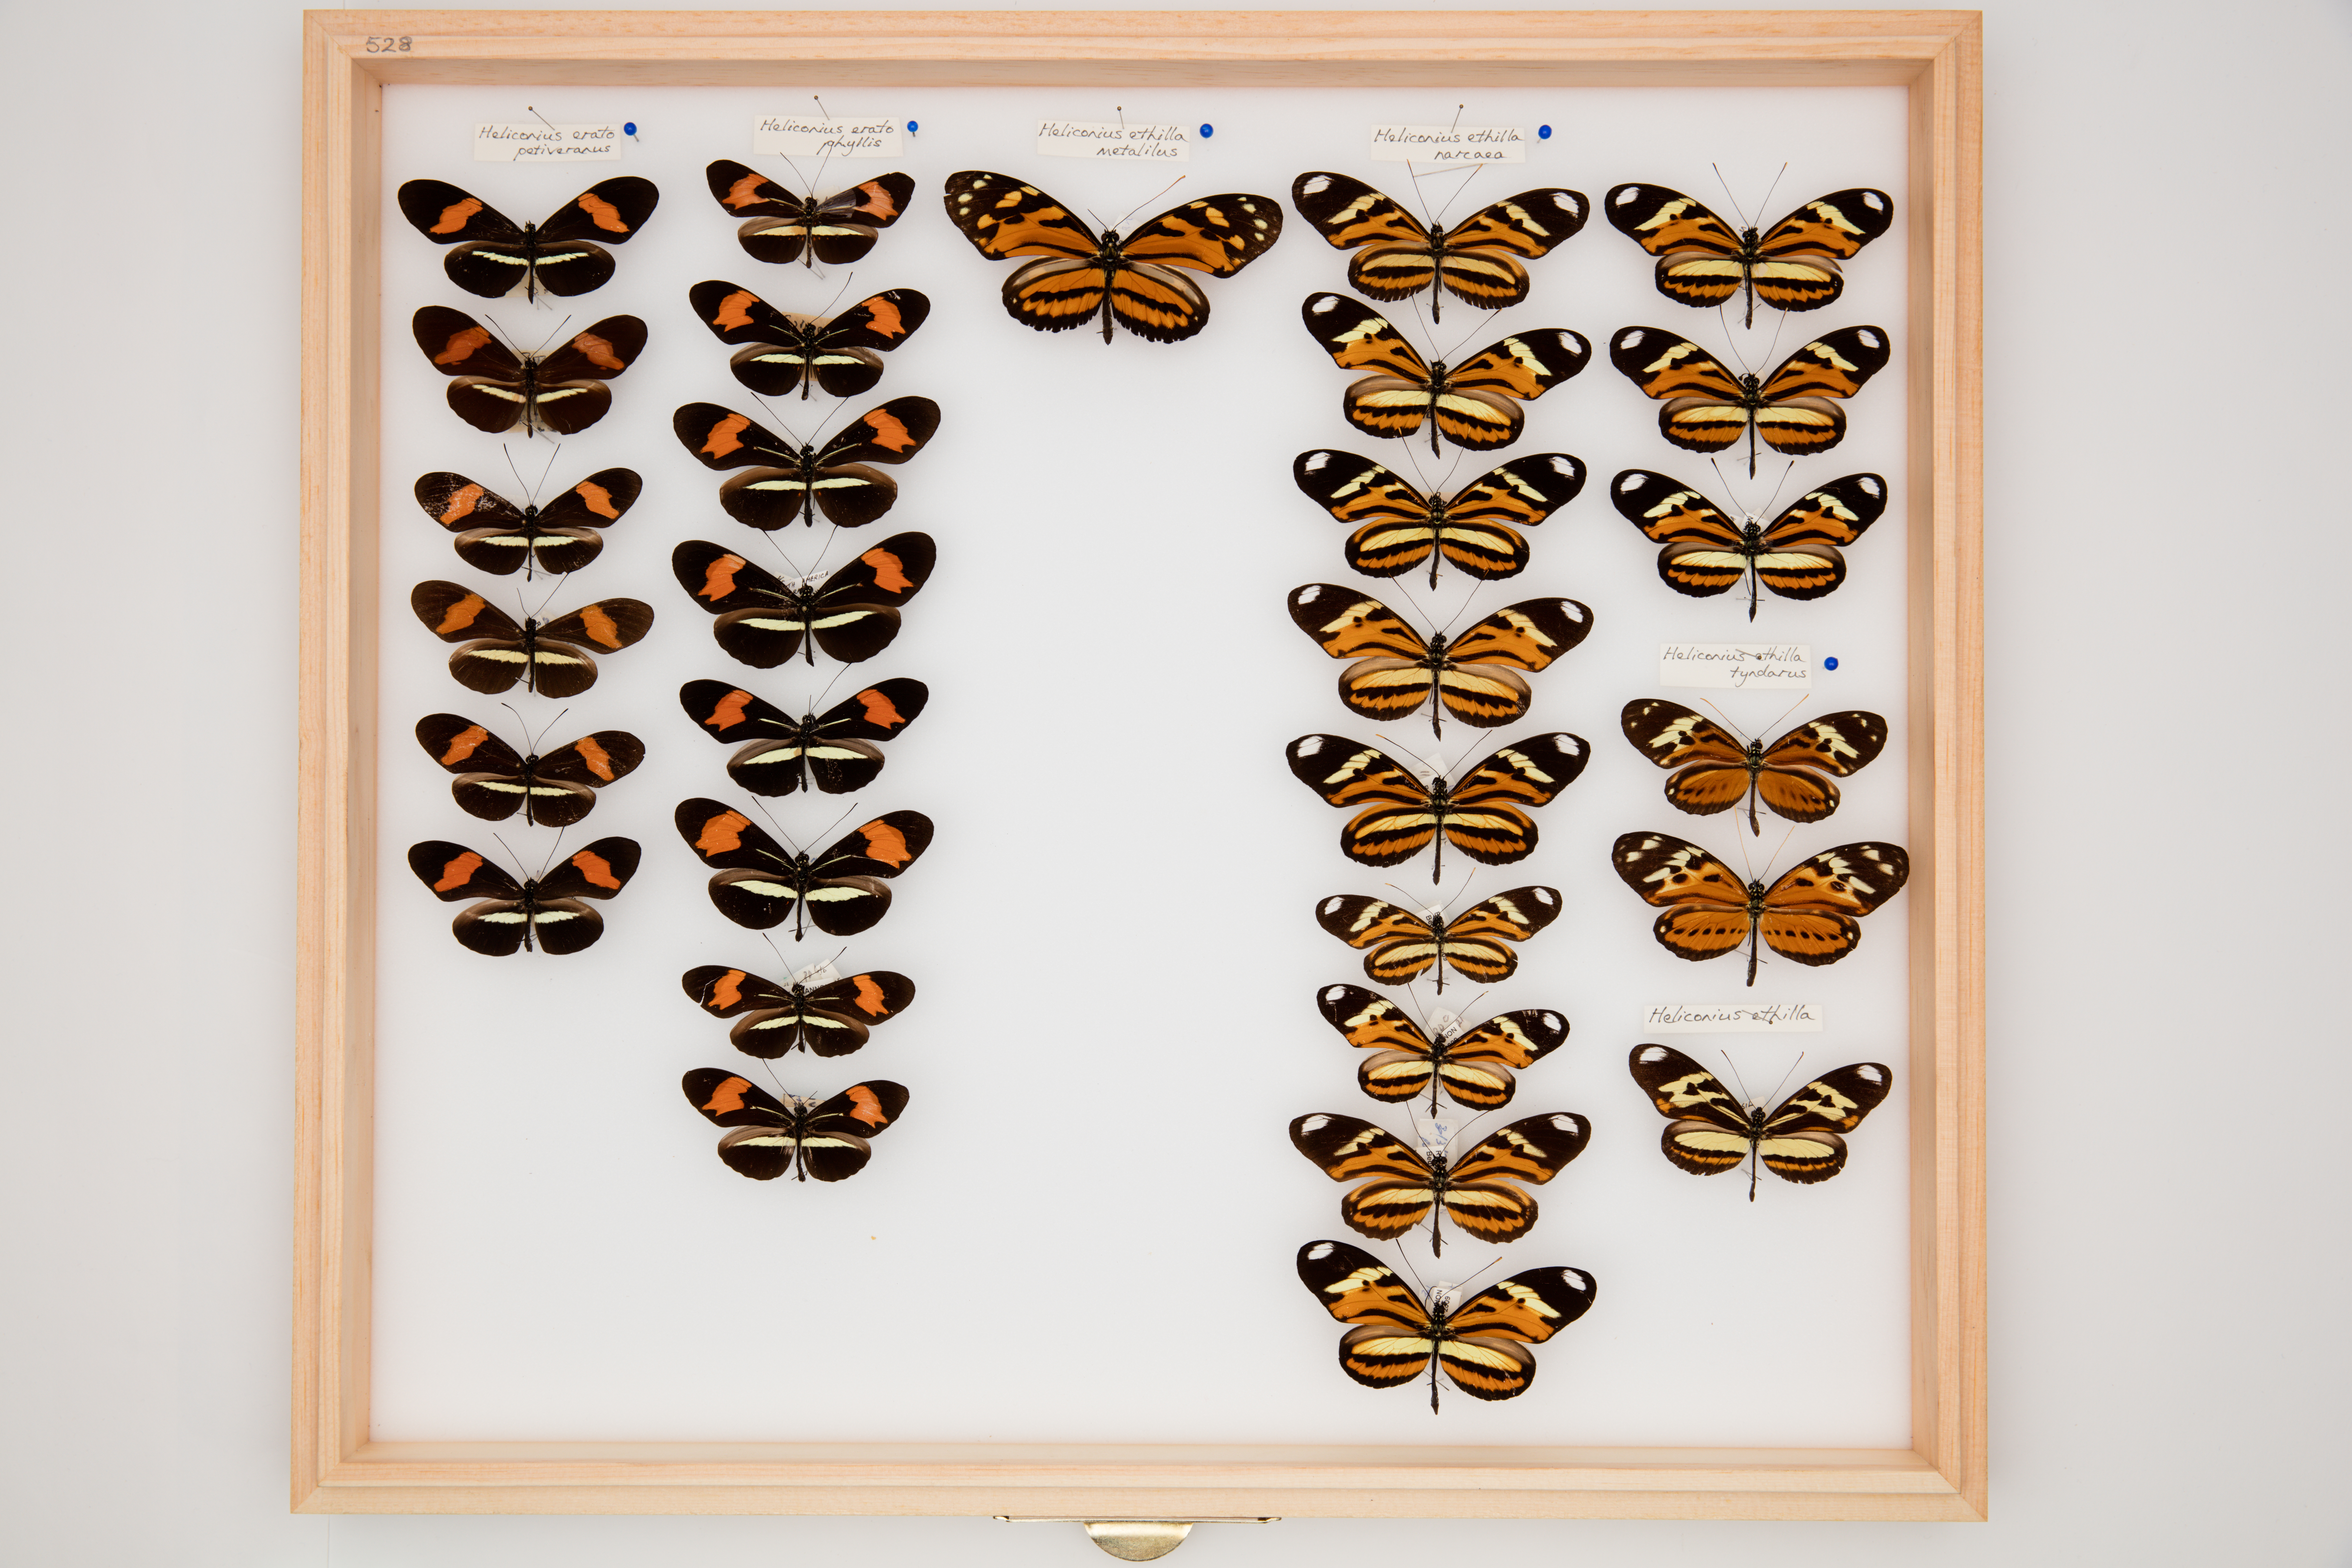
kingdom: Animalia
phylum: Arthropoda
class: Insecta
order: Lepidoptera
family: Nymphalidae
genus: Heliconius
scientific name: Heliconius ethilla
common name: Ethilia longwing
